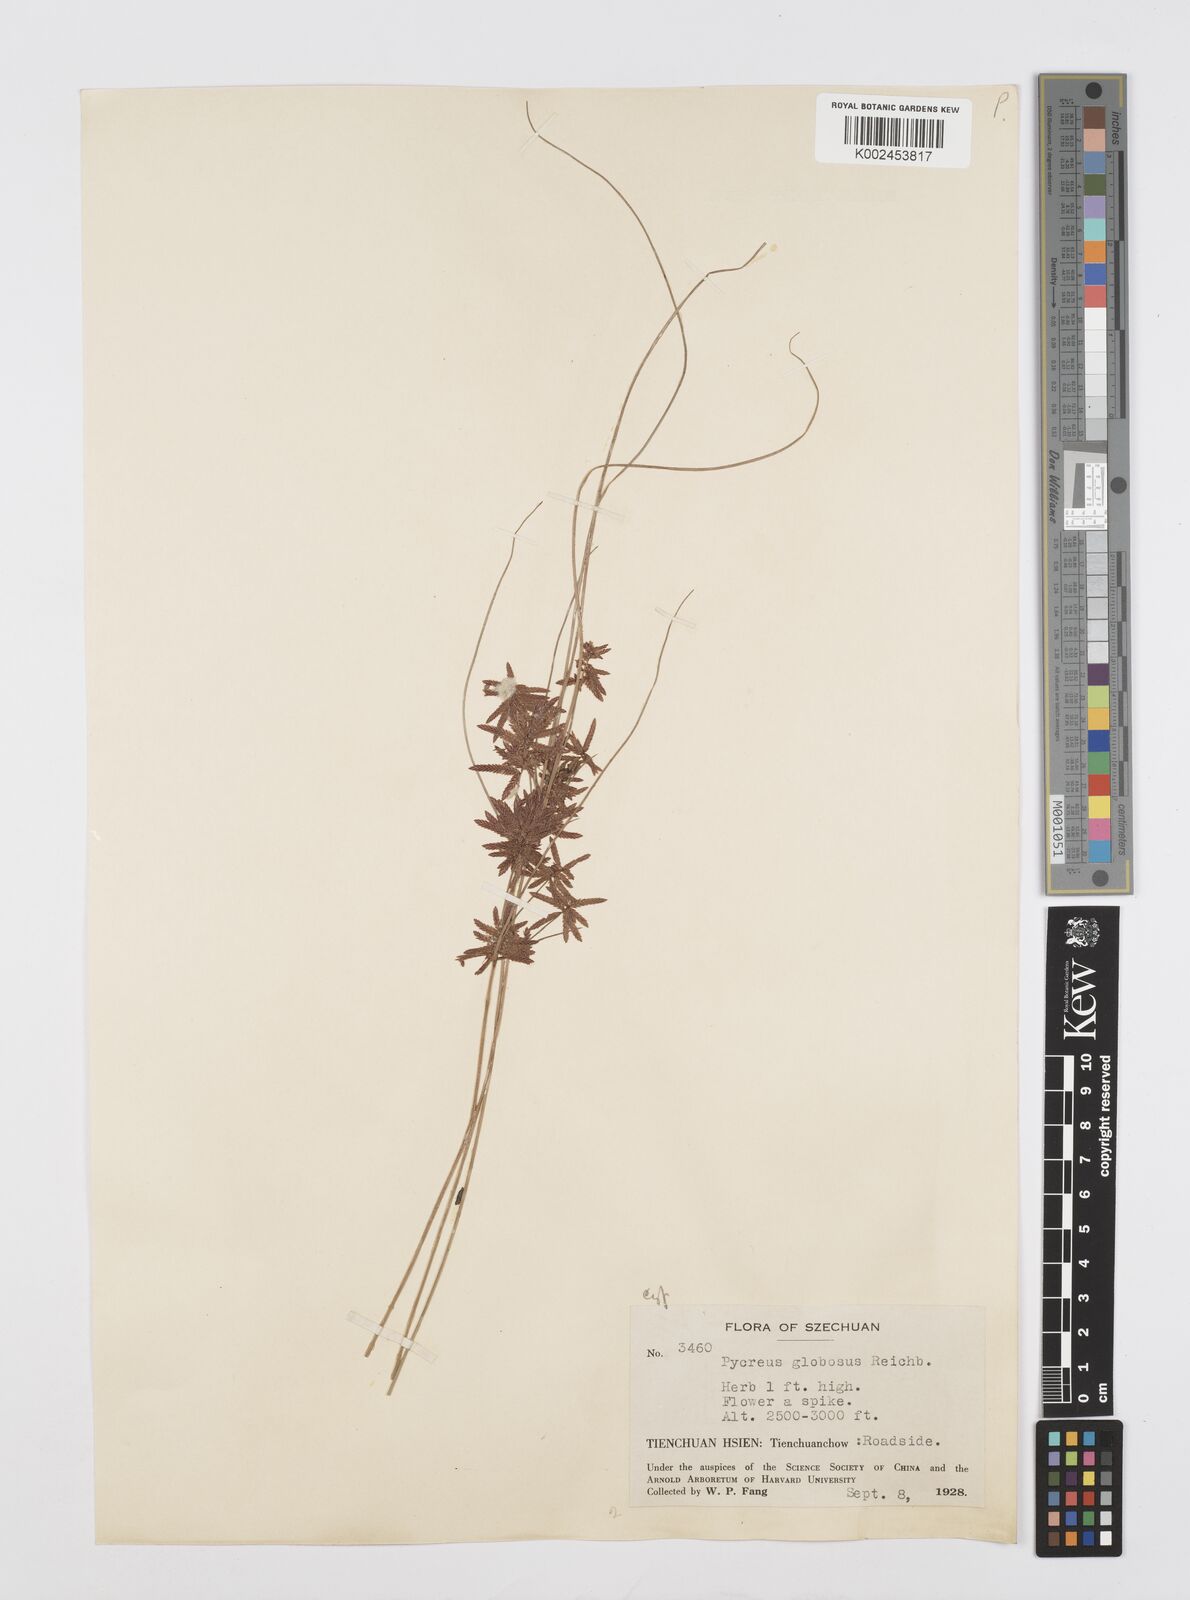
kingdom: Plantae
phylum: Tracheophyta
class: Liliopsida
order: Poales
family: Cyperaceae
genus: Cyperus
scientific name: Cyperus flavidus
